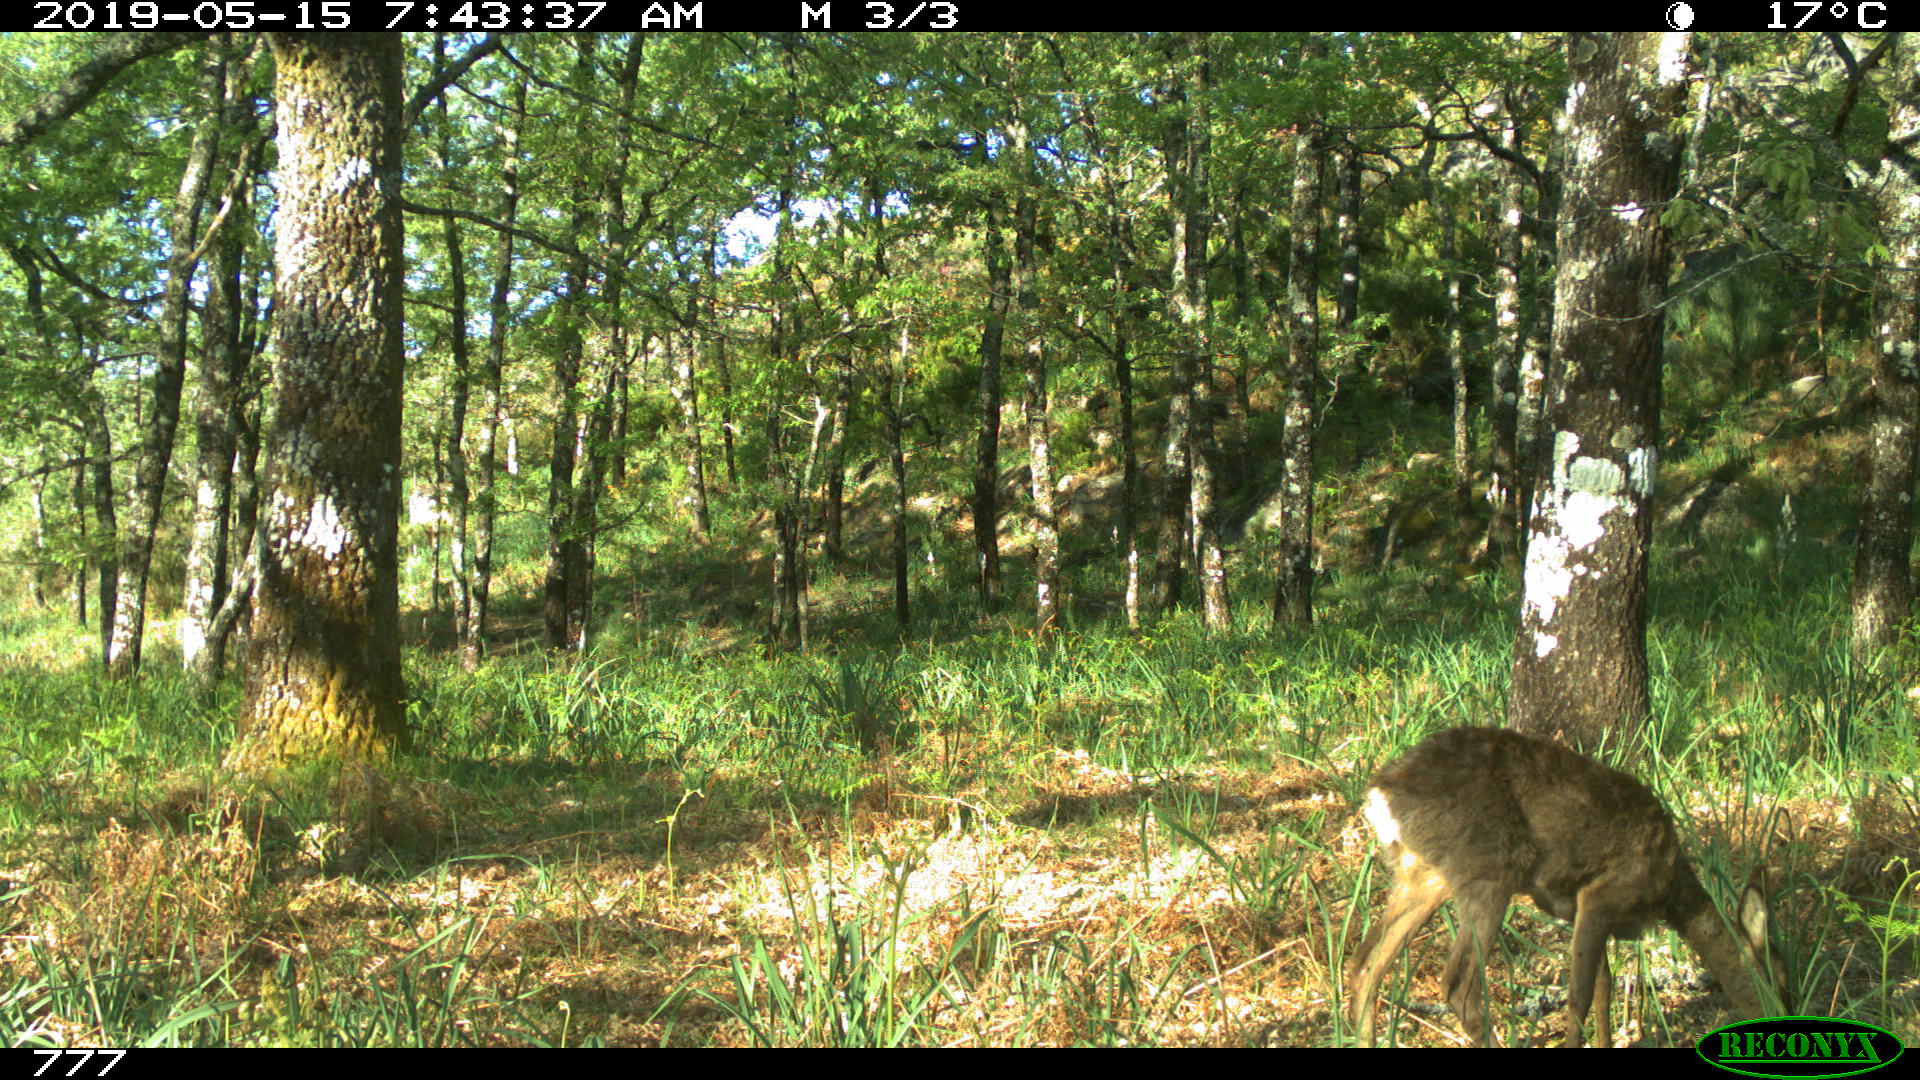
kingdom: Animalia
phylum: Chordata
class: Mammalia
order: Artiodactyla
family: Cervidae
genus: Capreolus
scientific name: Capreolus capreolus
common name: Western roe deer
